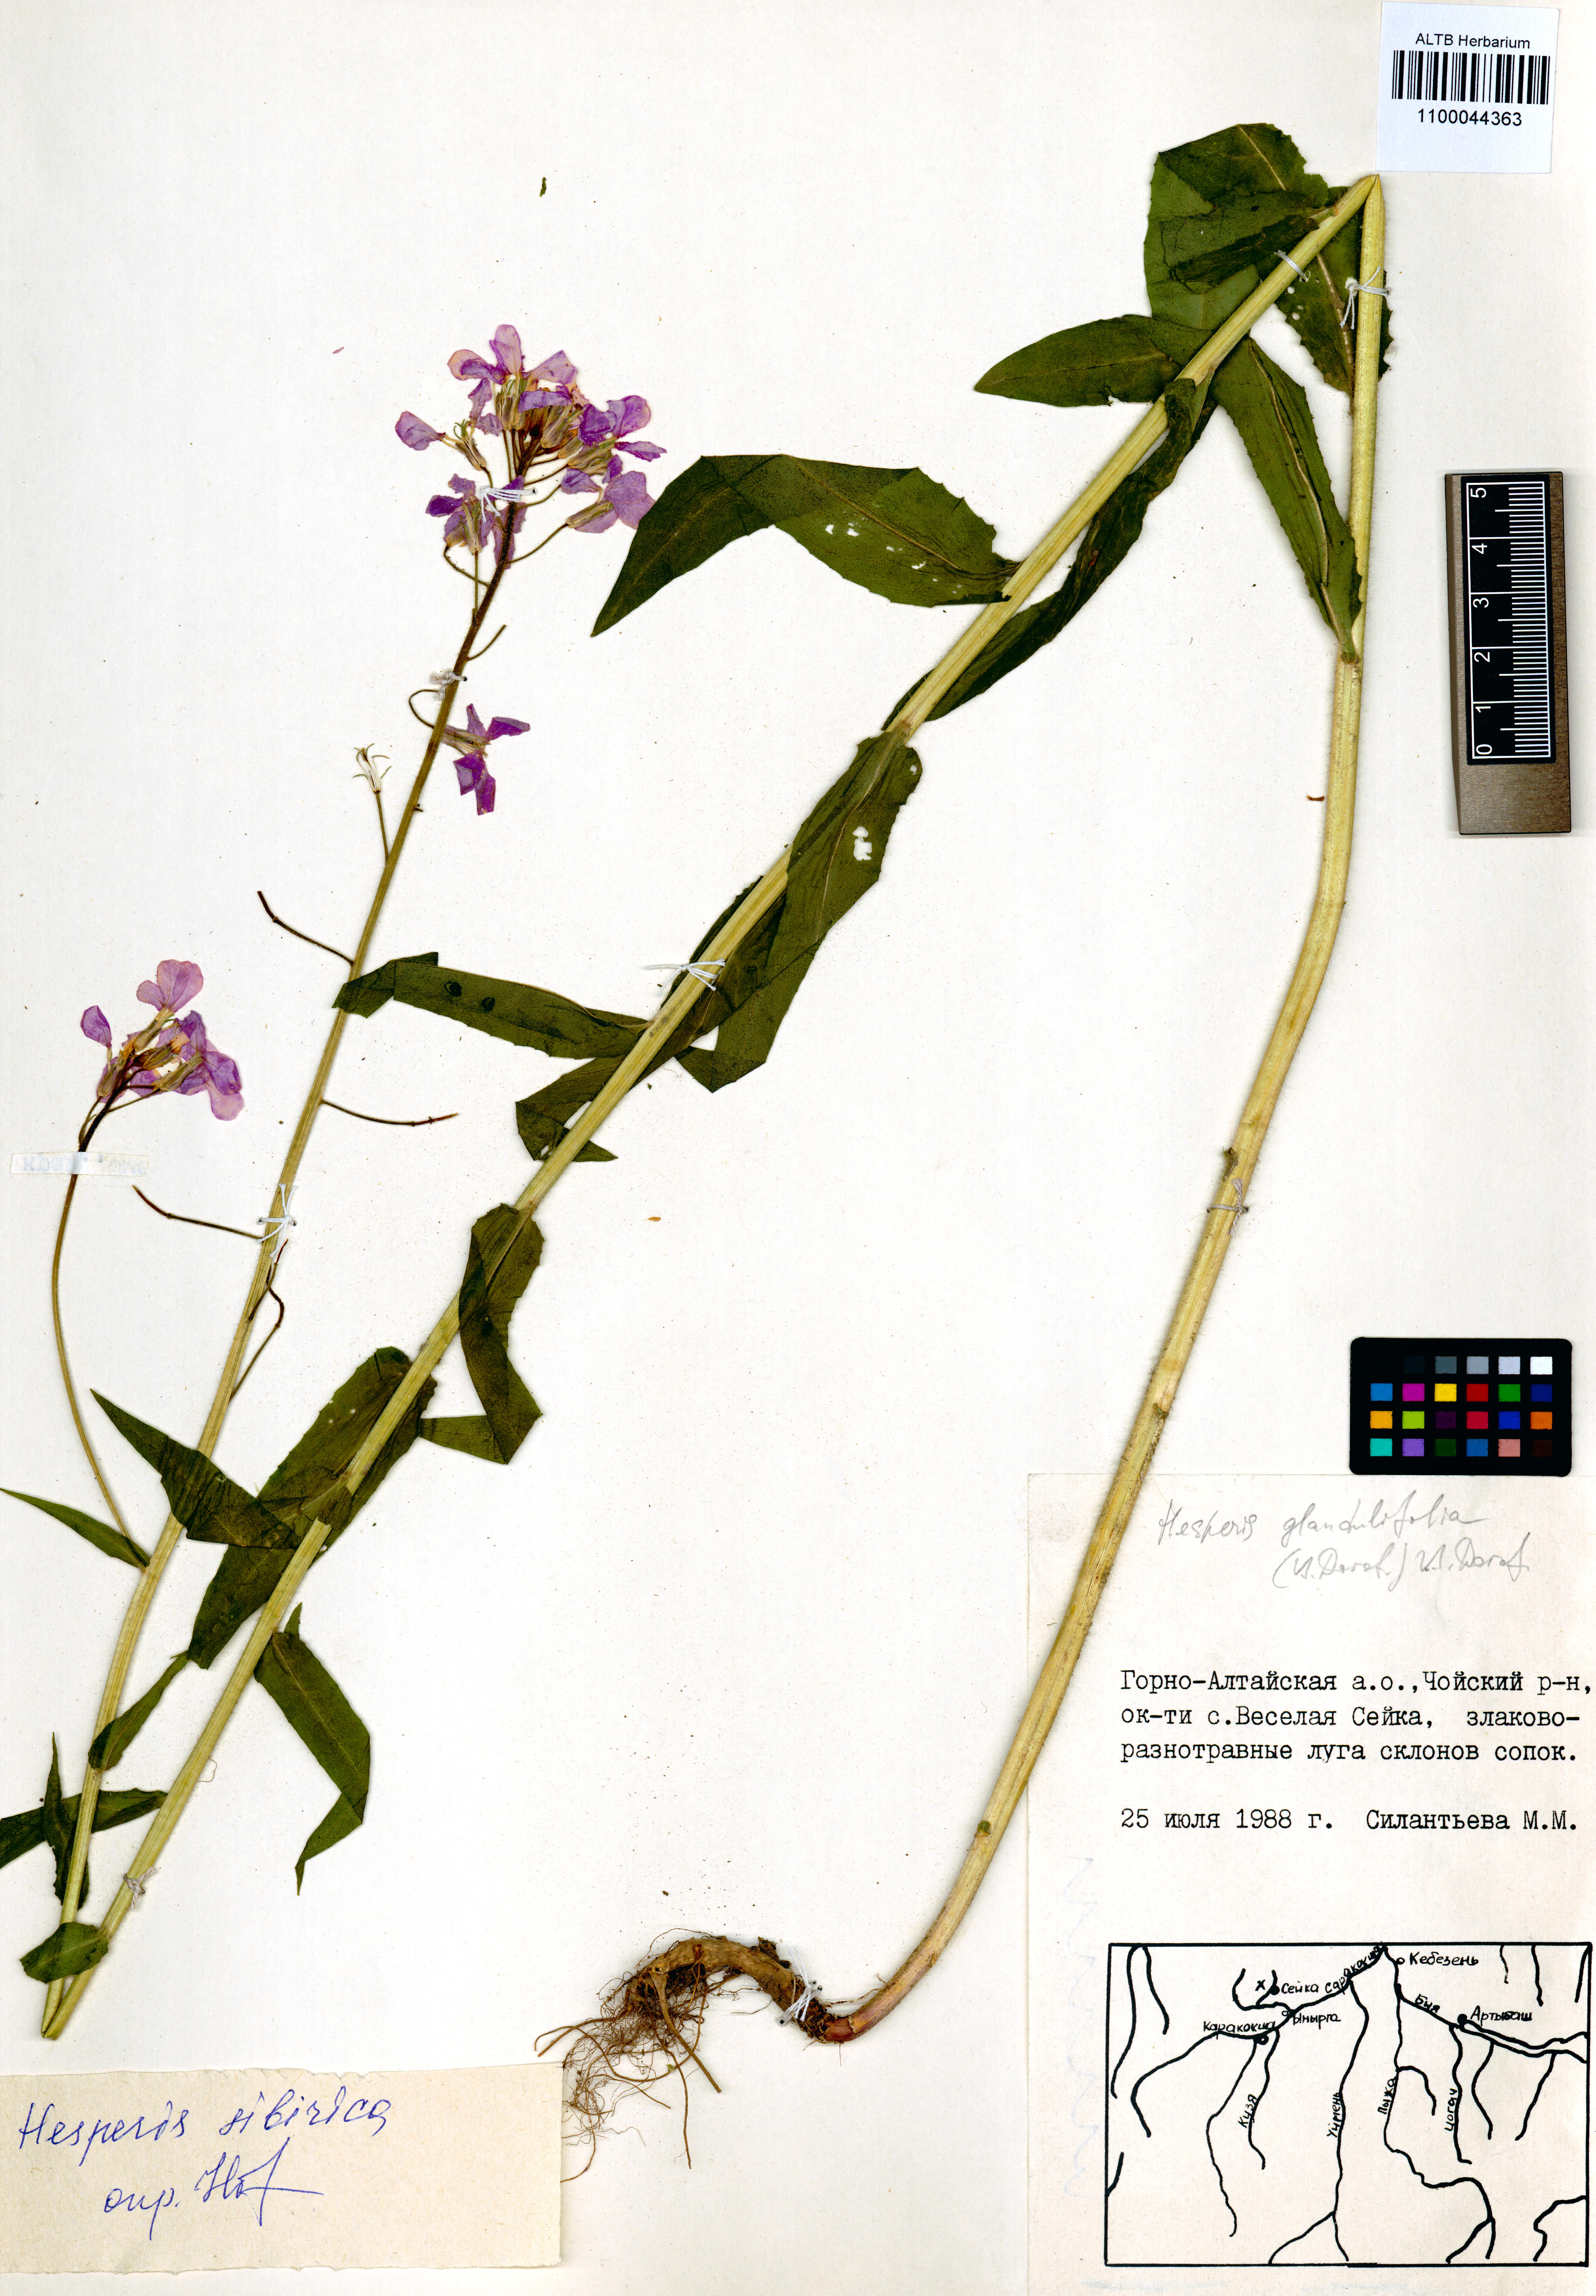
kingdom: Plantae
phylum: Tracheophyta
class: Magnoliopsida
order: Brassicales
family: Brassicaceae
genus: Hesperis
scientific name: Hesperis sibirica
